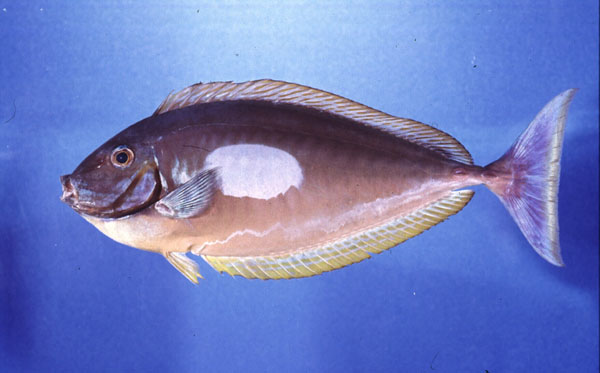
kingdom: Animalia
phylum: Chordata
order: Perciformes
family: Acanthuridae
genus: Naso
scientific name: Naso hexacanthus
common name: Black unicornfish
